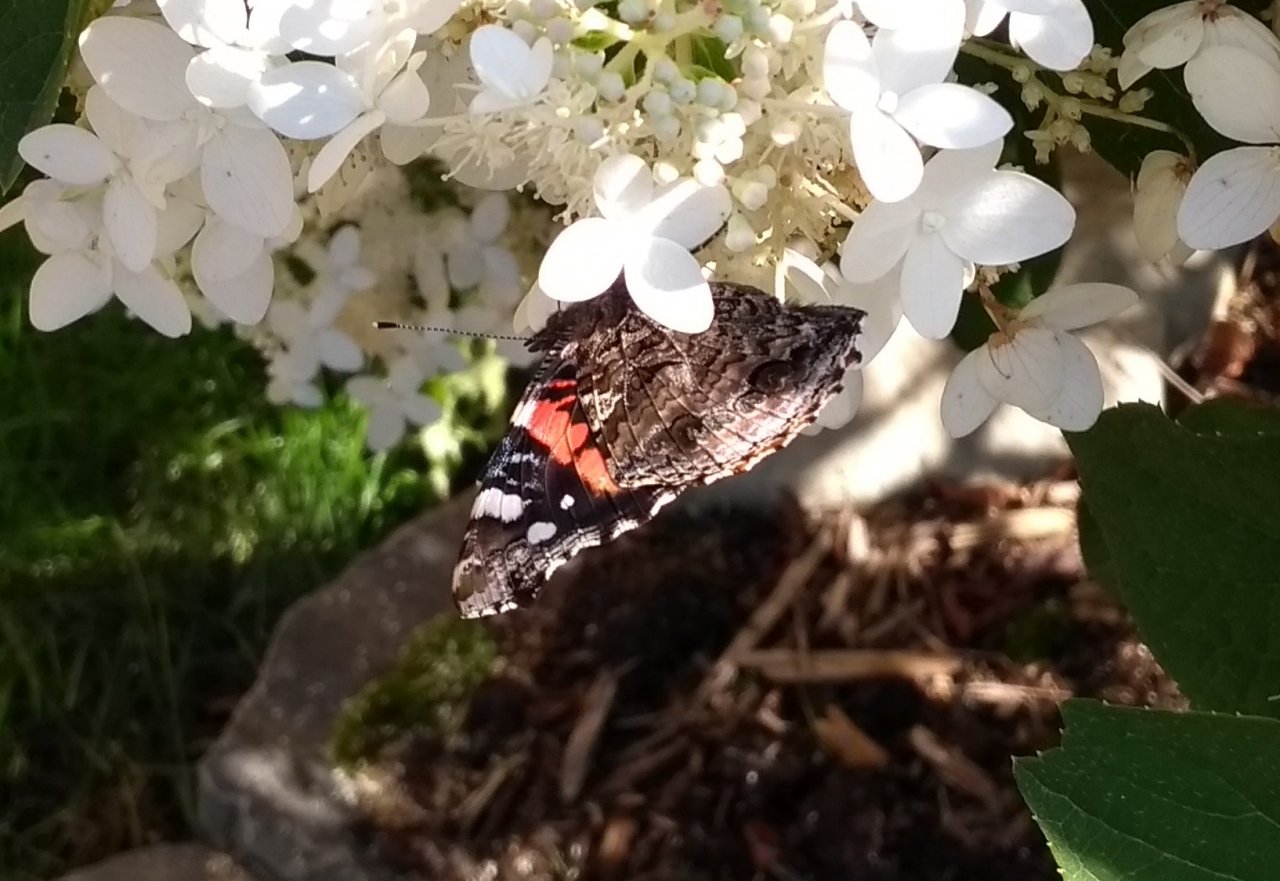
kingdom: Animalia
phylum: Arthropoda
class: Insecta
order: Lepidoptera
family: Nymphalidae
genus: Vanessa
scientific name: Vanessa atalanta
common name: Red Admiral
